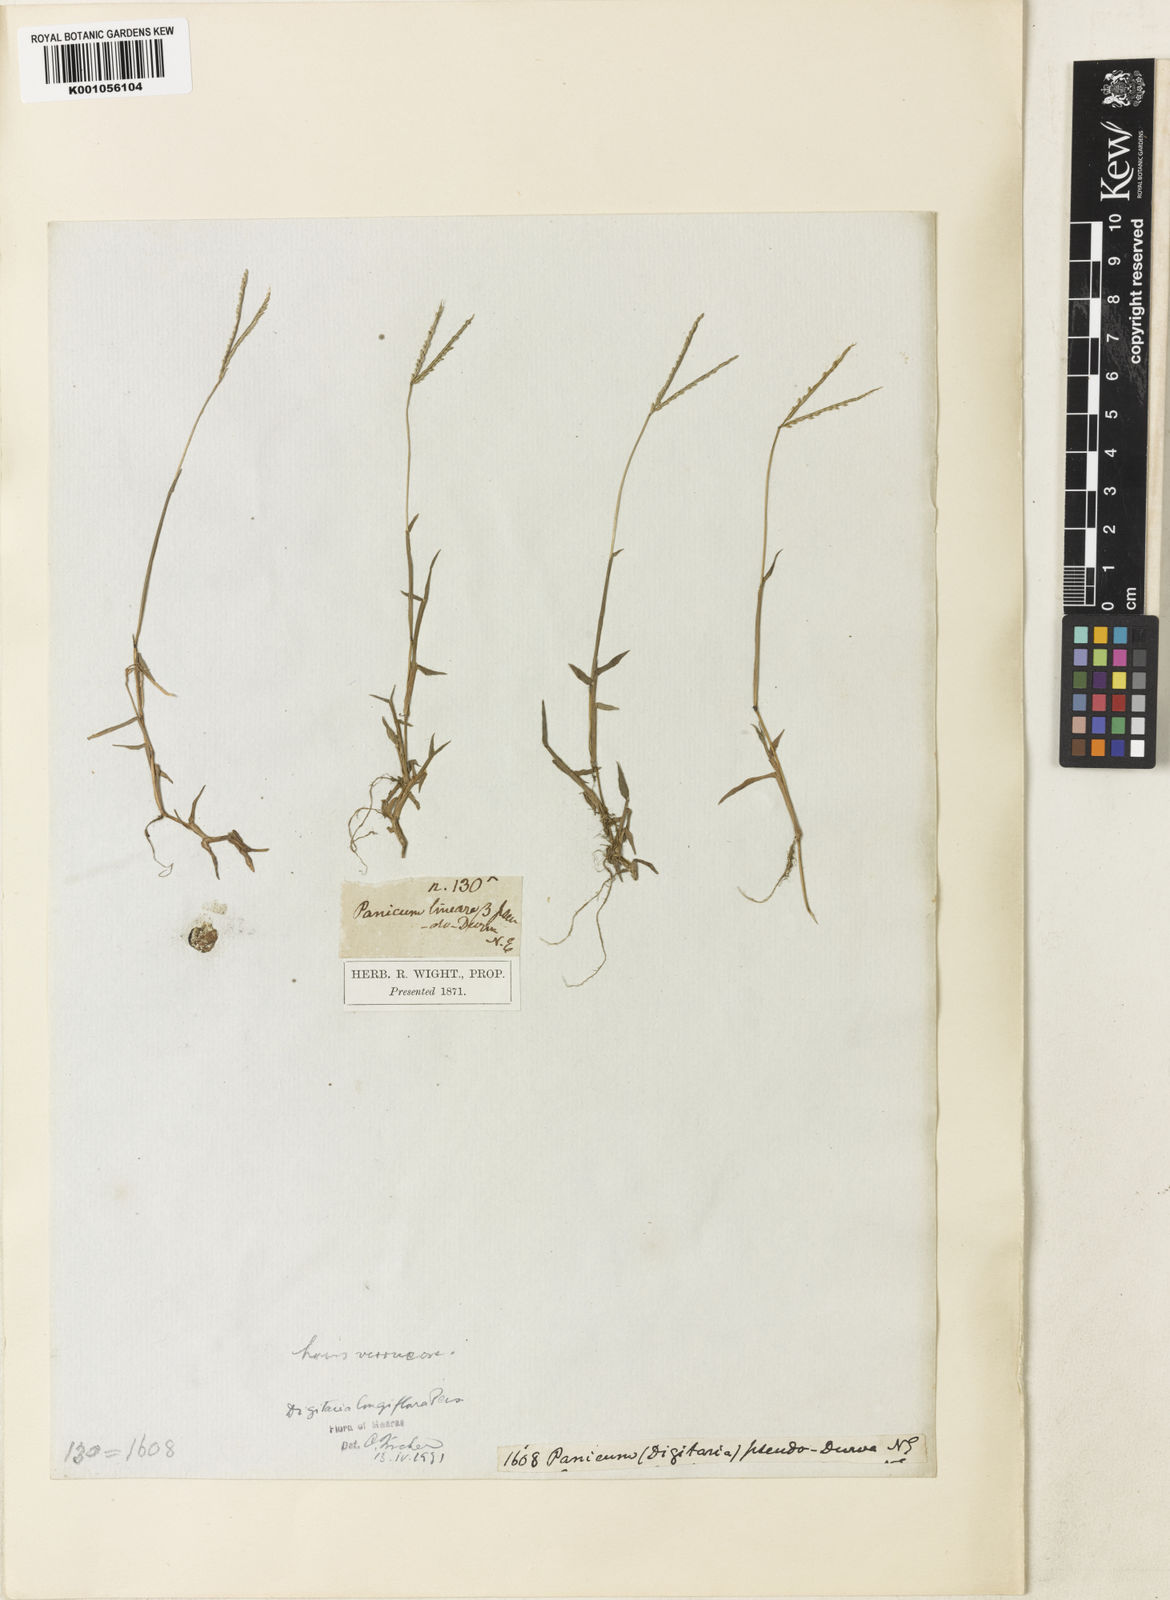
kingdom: Plantae
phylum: Tracheophyta
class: Liliopsida
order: Poales
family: Poaceae
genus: Digitaria
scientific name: Digitaria longiflora
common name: Wire crabgrass
